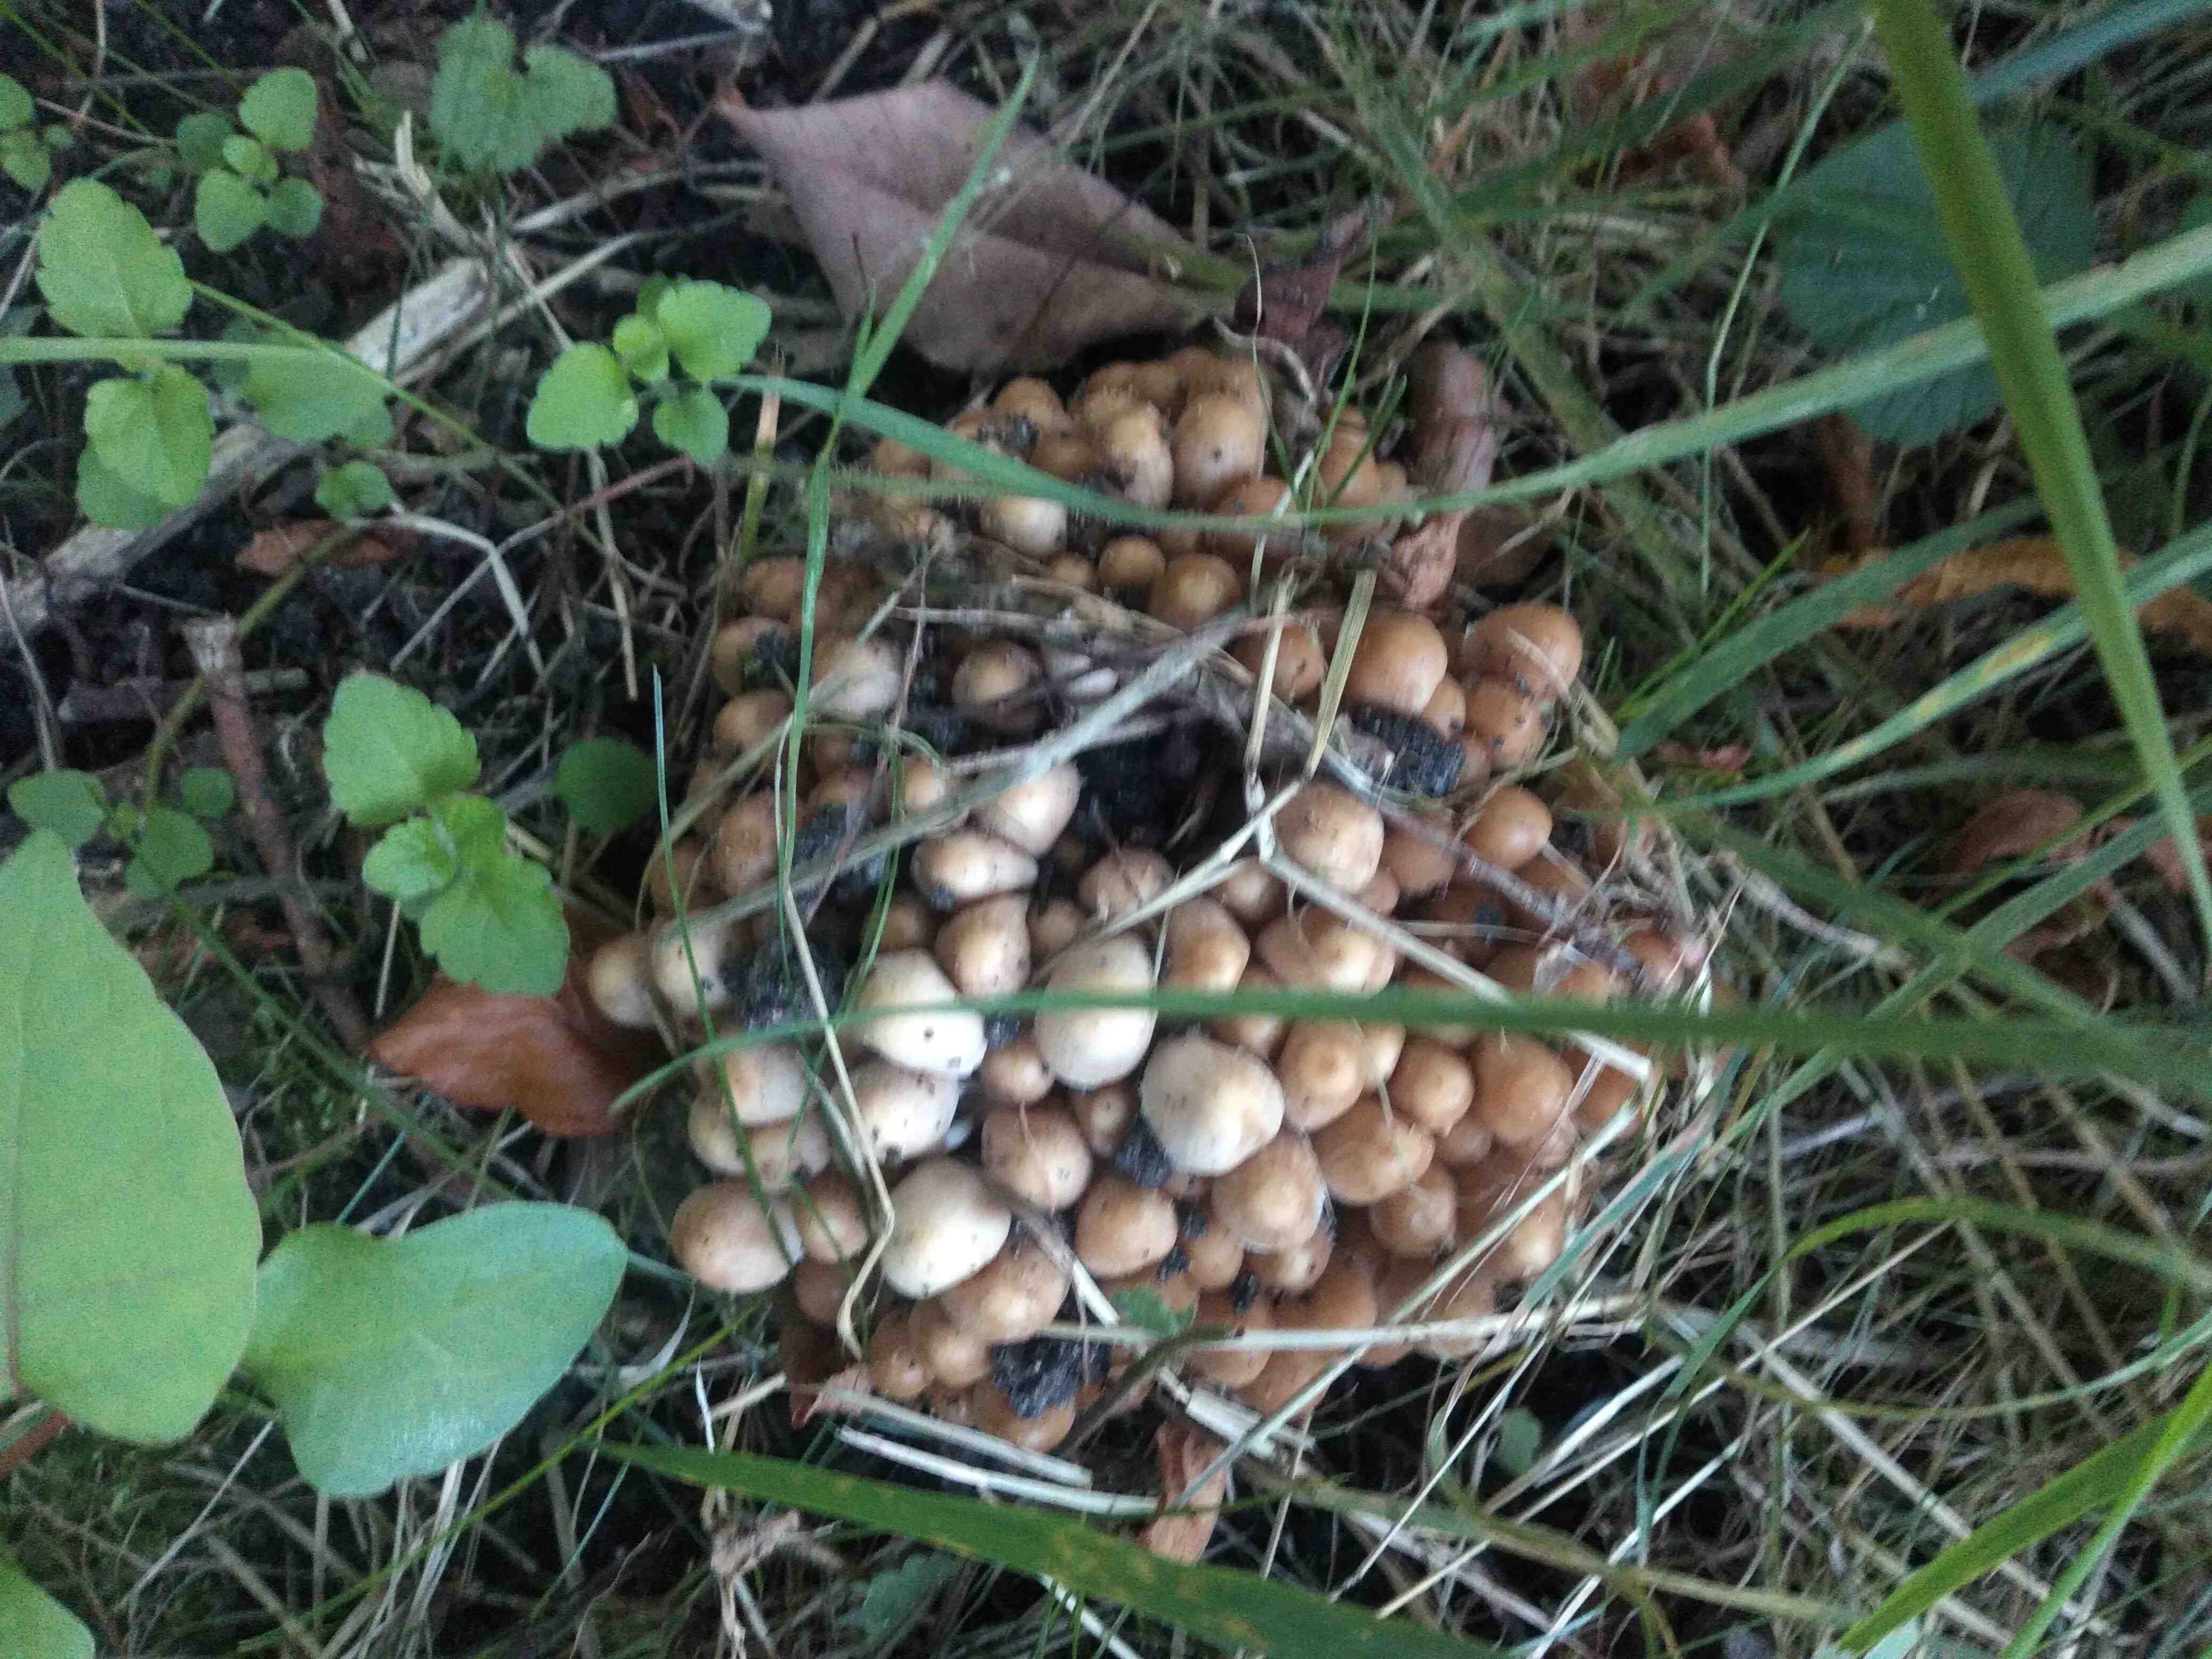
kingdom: Fungi
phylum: Basidiomycota
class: Agaricomycetes
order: Agaricales
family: Psathyrellaceae
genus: Britzelmayria
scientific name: Britzelmayria multipedata
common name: knippe-mørkhat
